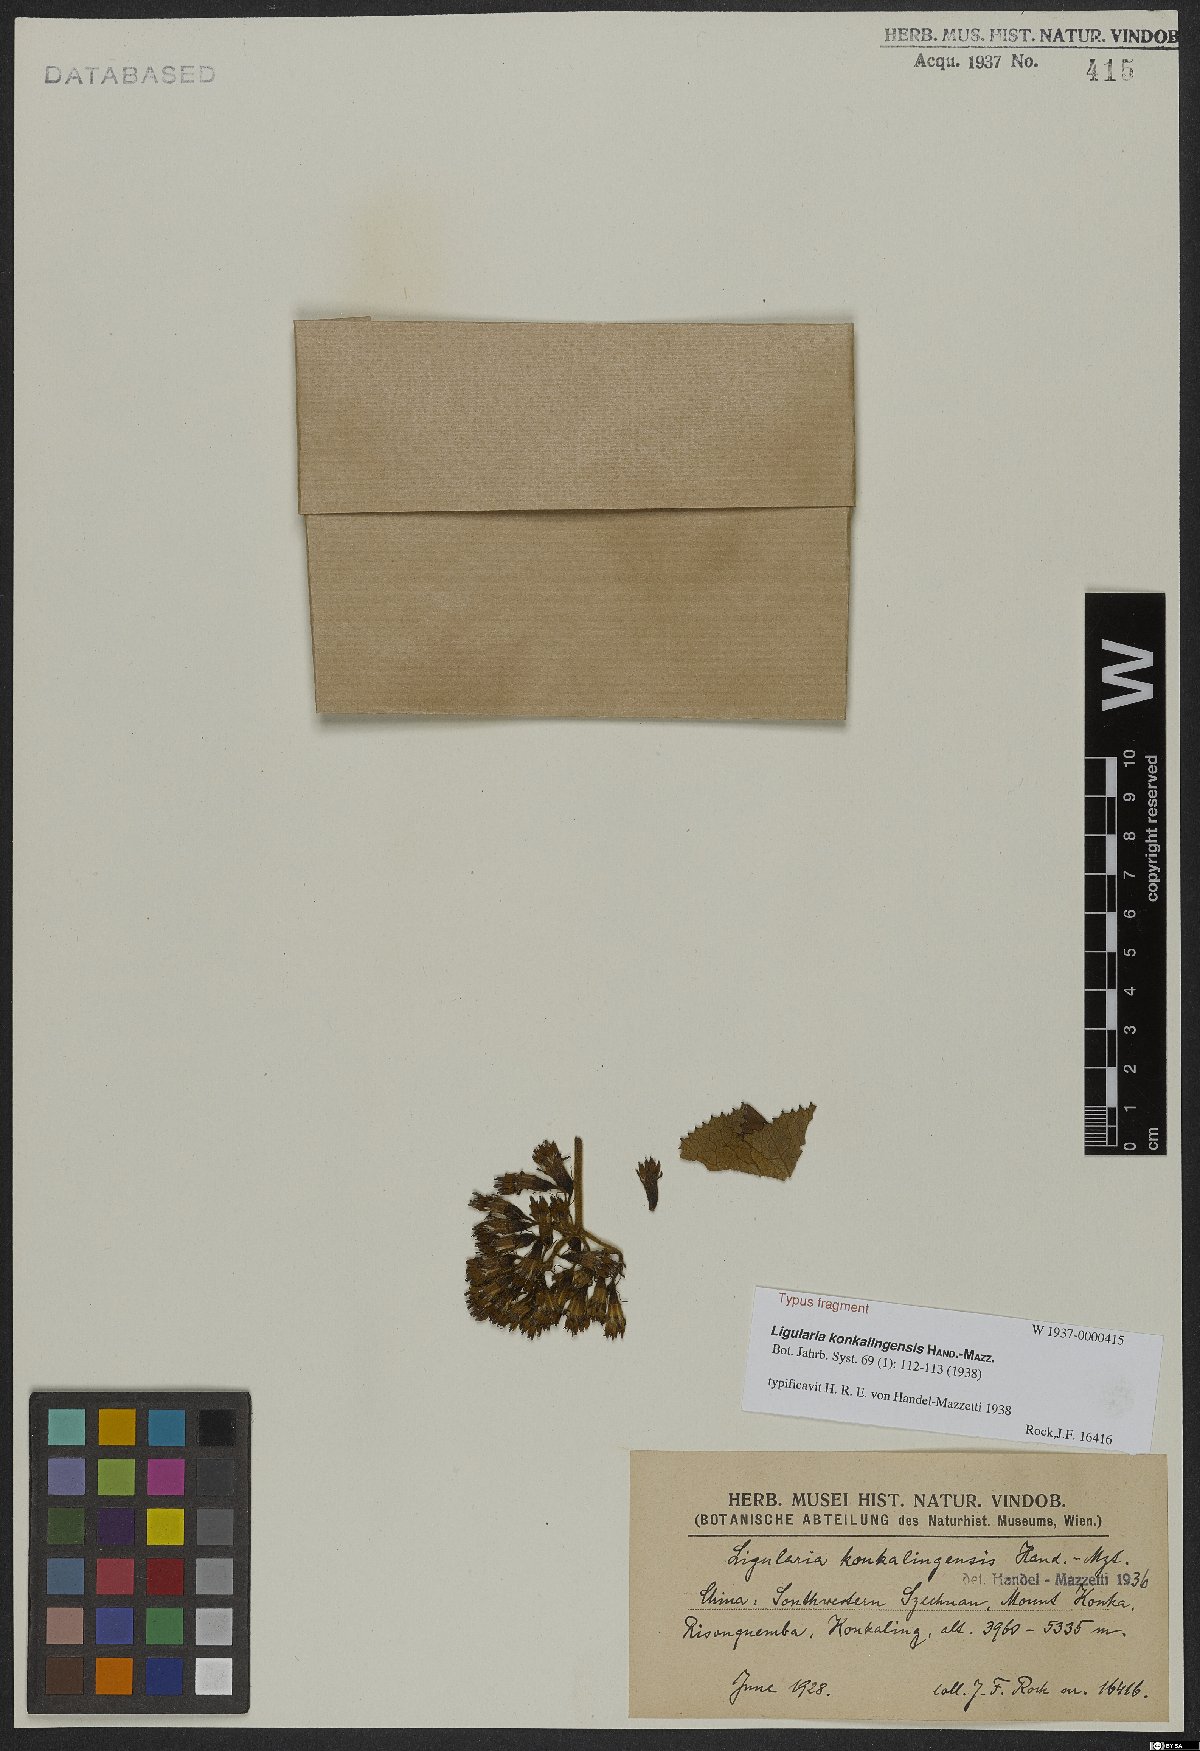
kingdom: Plantae
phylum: Tracheophyta
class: Magnoliopsida
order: Asterales
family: Asteraceae
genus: Ligularia
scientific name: Ligularia konkalingensis
